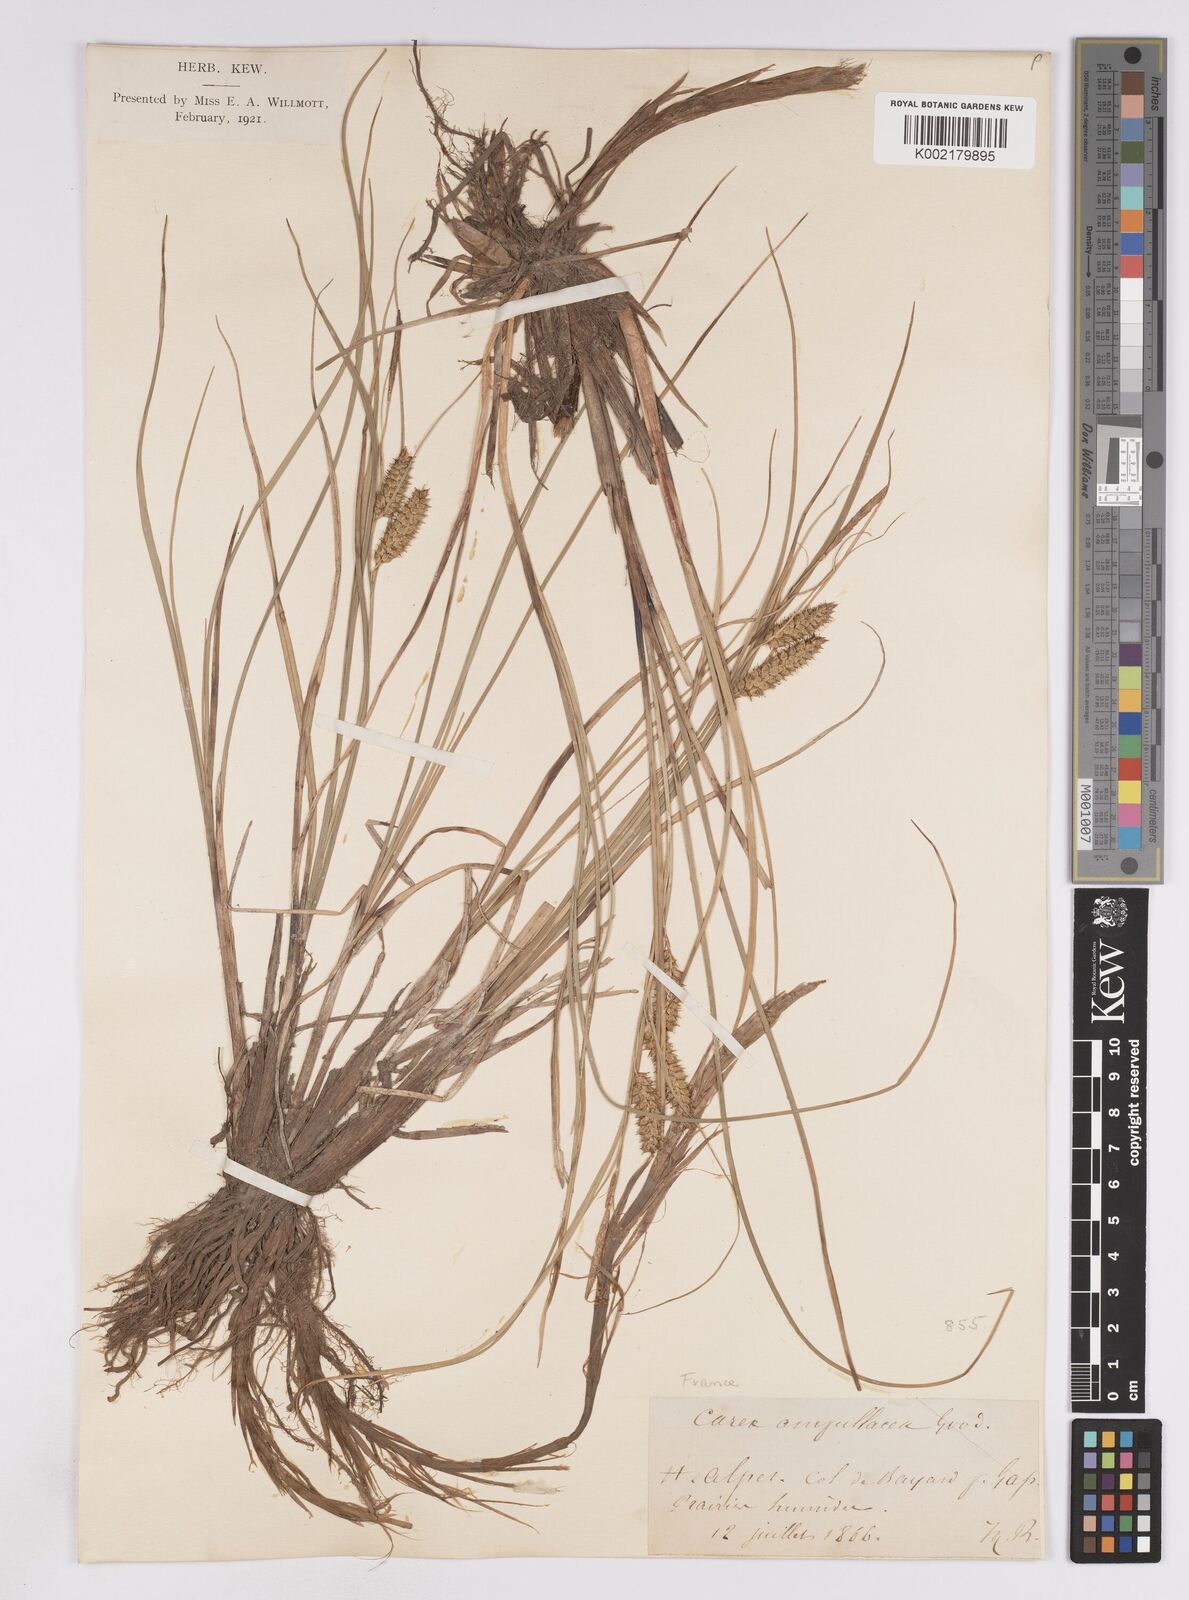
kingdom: Plantae
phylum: Tracheophyta
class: Liliopsida
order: Poales
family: Cyperaceae
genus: Carex
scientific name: Carex rostrata
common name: Bottle sedge
